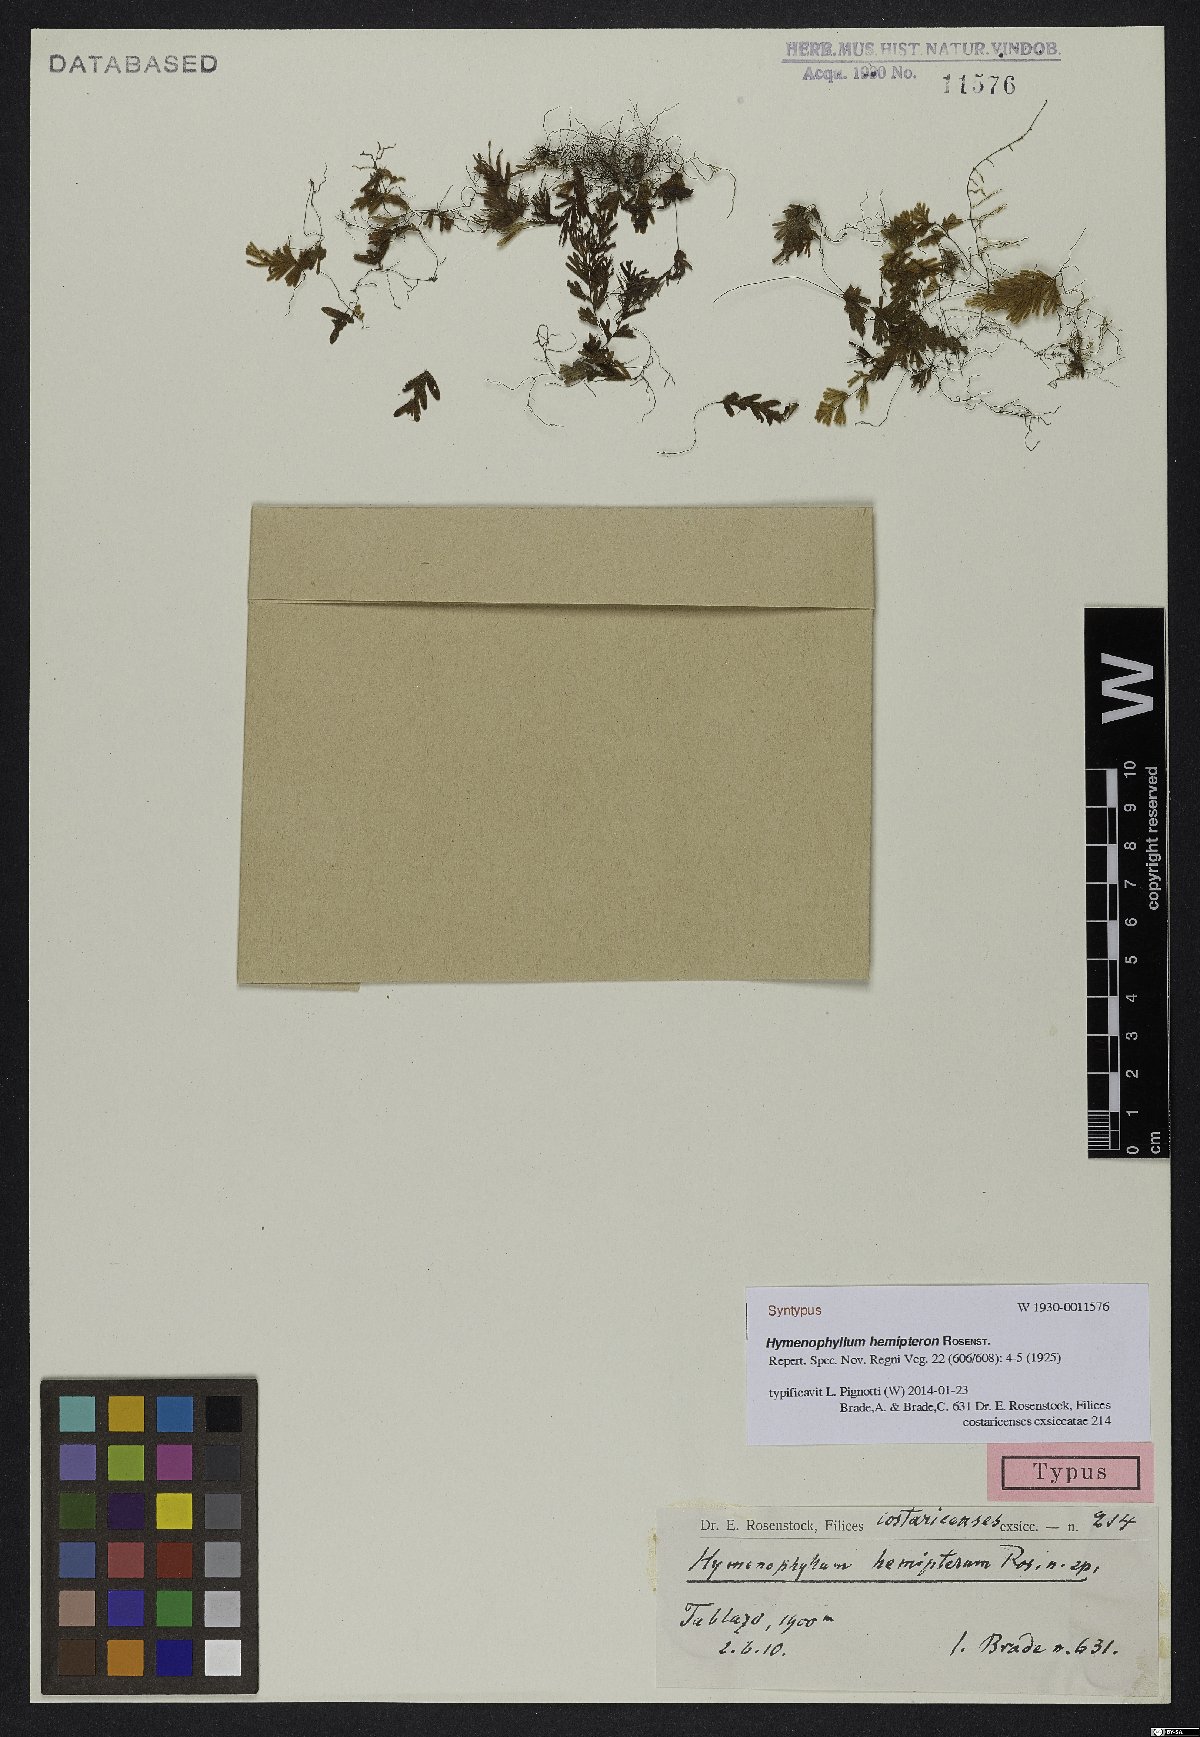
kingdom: Plantae
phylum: Tracheophyta
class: Polypodiopsida
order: Hymenophyllales
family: Hymenophyllaceae
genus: Hymenophyllum
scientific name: Hymenophyllum hemipteron
